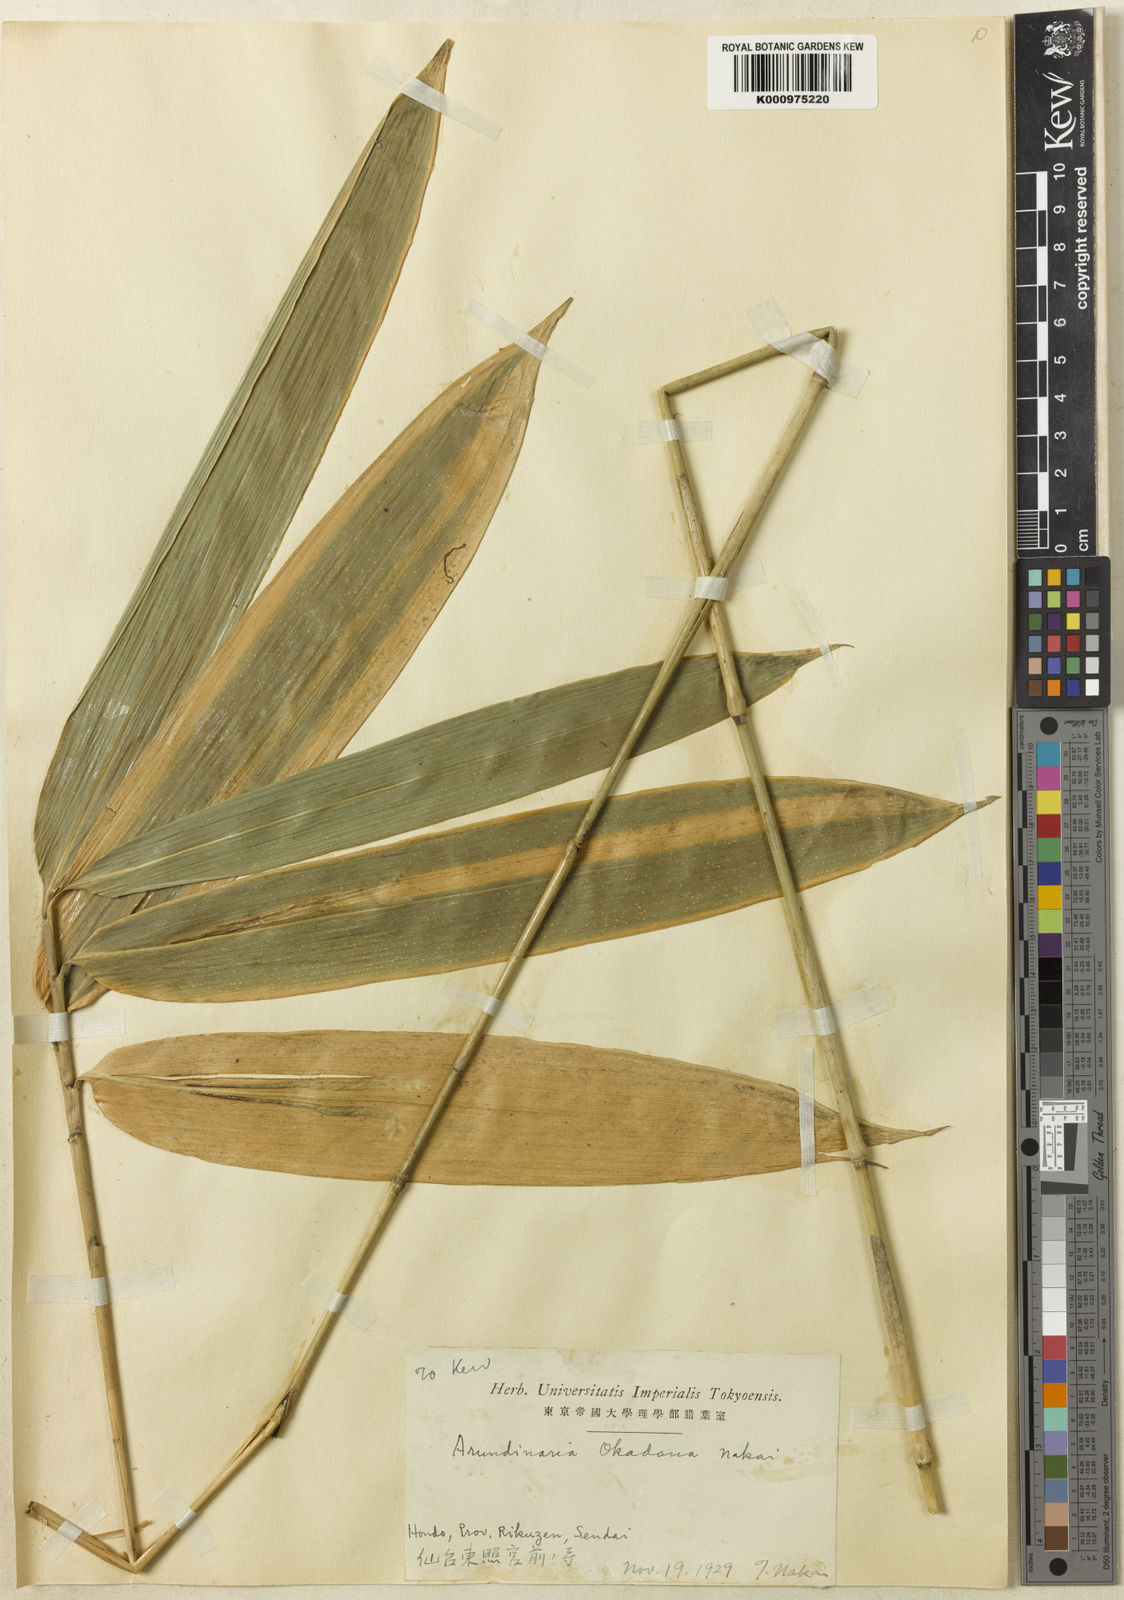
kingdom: Plantae
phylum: Tracheophyta
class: Liliopsida
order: Poales
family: Poaceae
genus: Sasaella
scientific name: Sasaella ramosa
